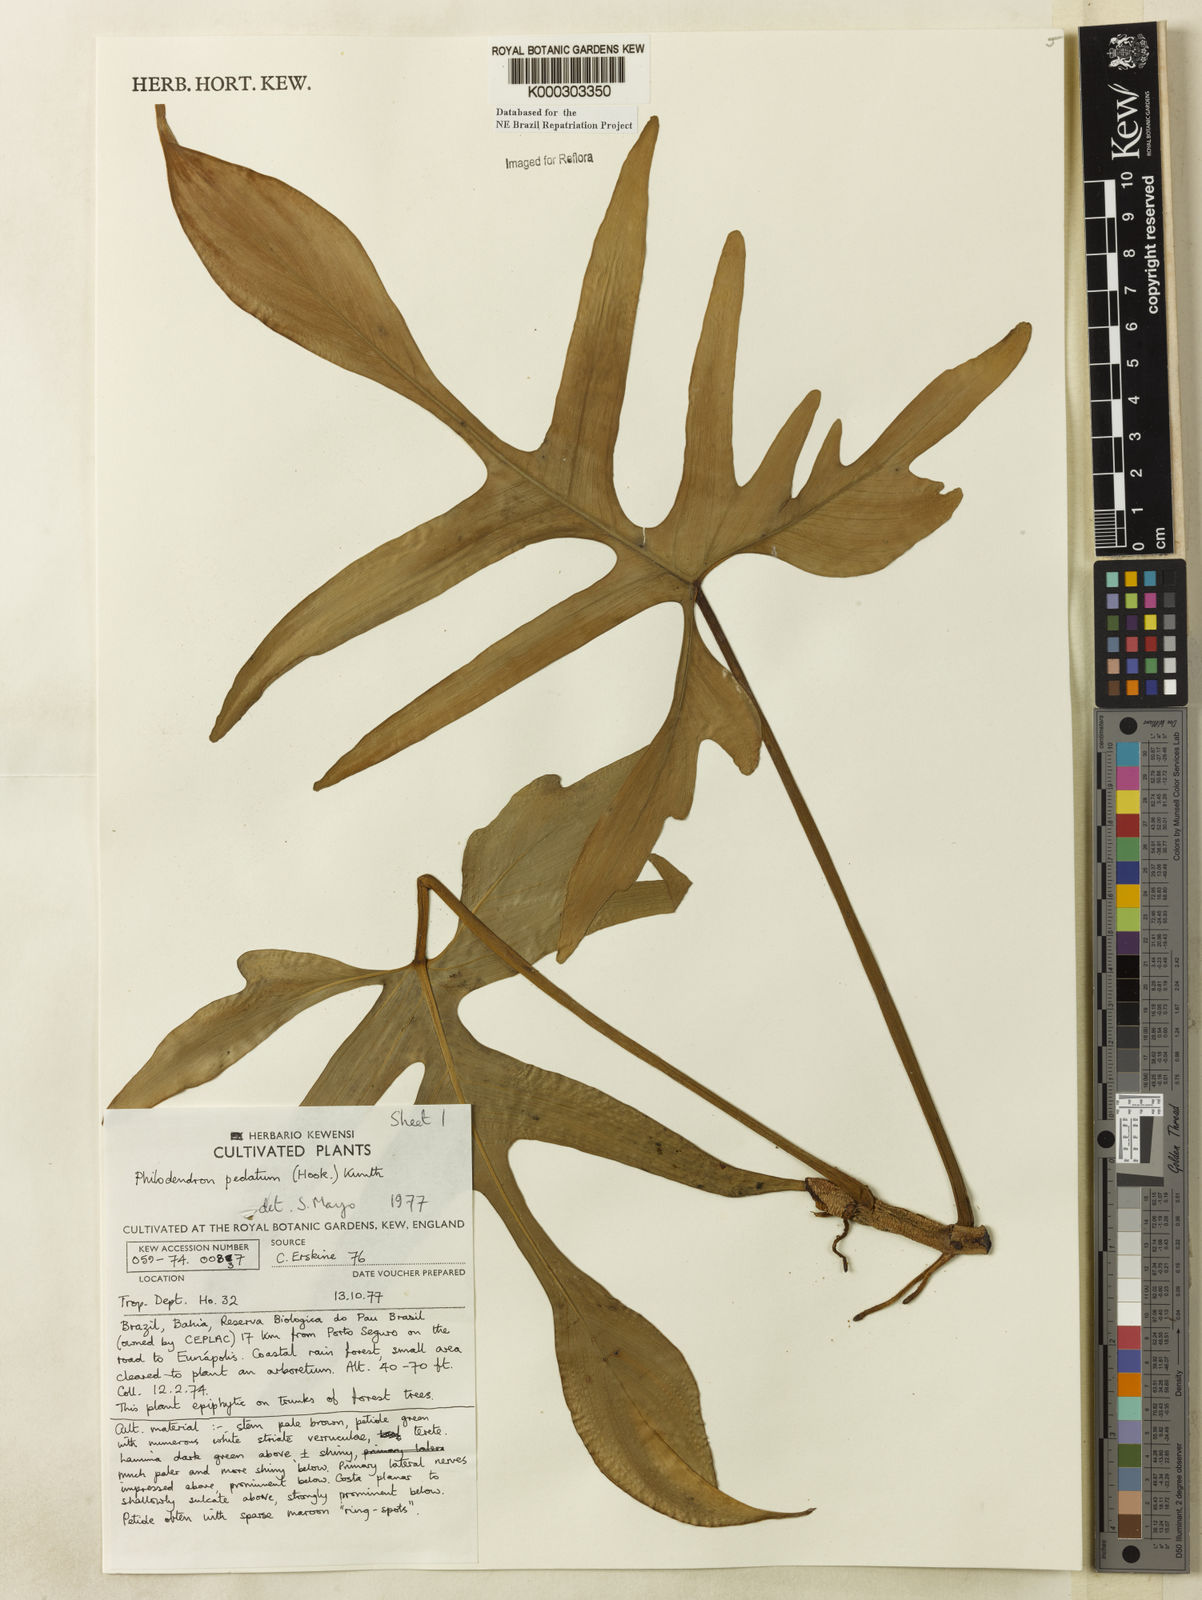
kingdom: Plantae
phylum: Tracheophyta
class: Liliopsida
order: Alismatales
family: Araceae
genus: Philodendron
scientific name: Philodendron pedatum
